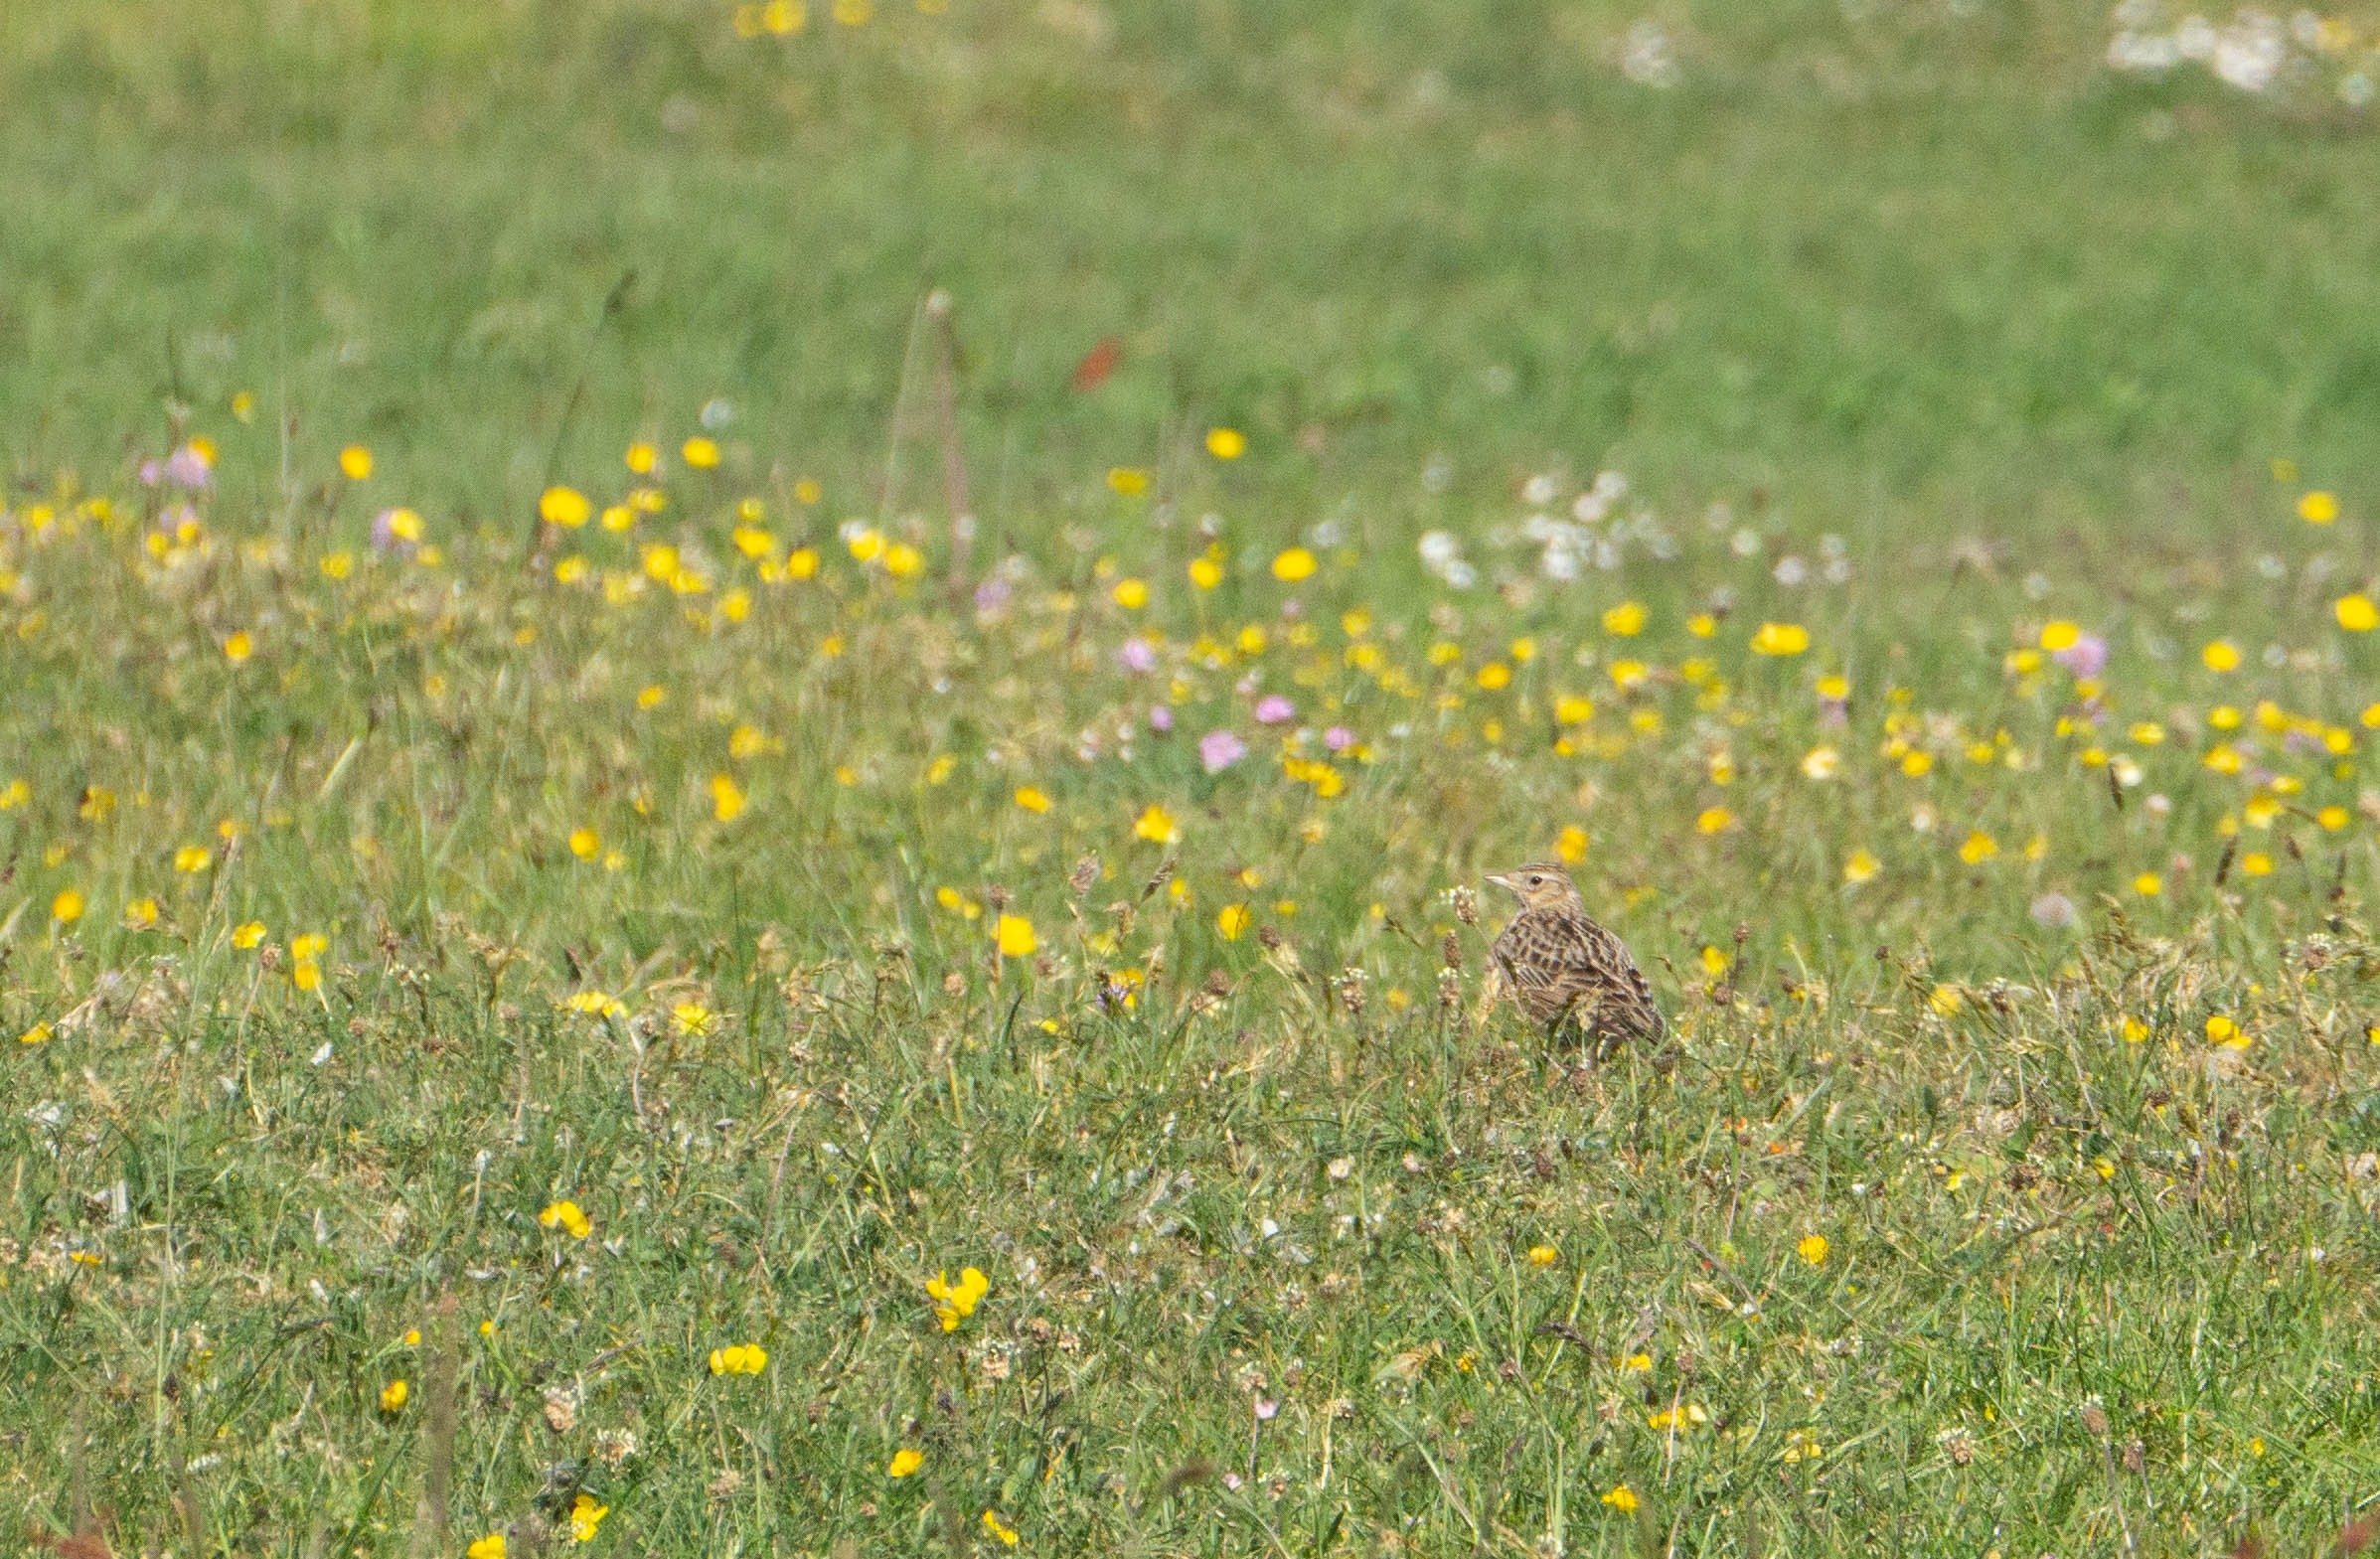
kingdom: Animalia
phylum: Chordata
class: Aves
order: Passeriformes
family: Alaudidae
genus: Alauda
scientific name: Alauda arvensis
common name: Sanglærke
